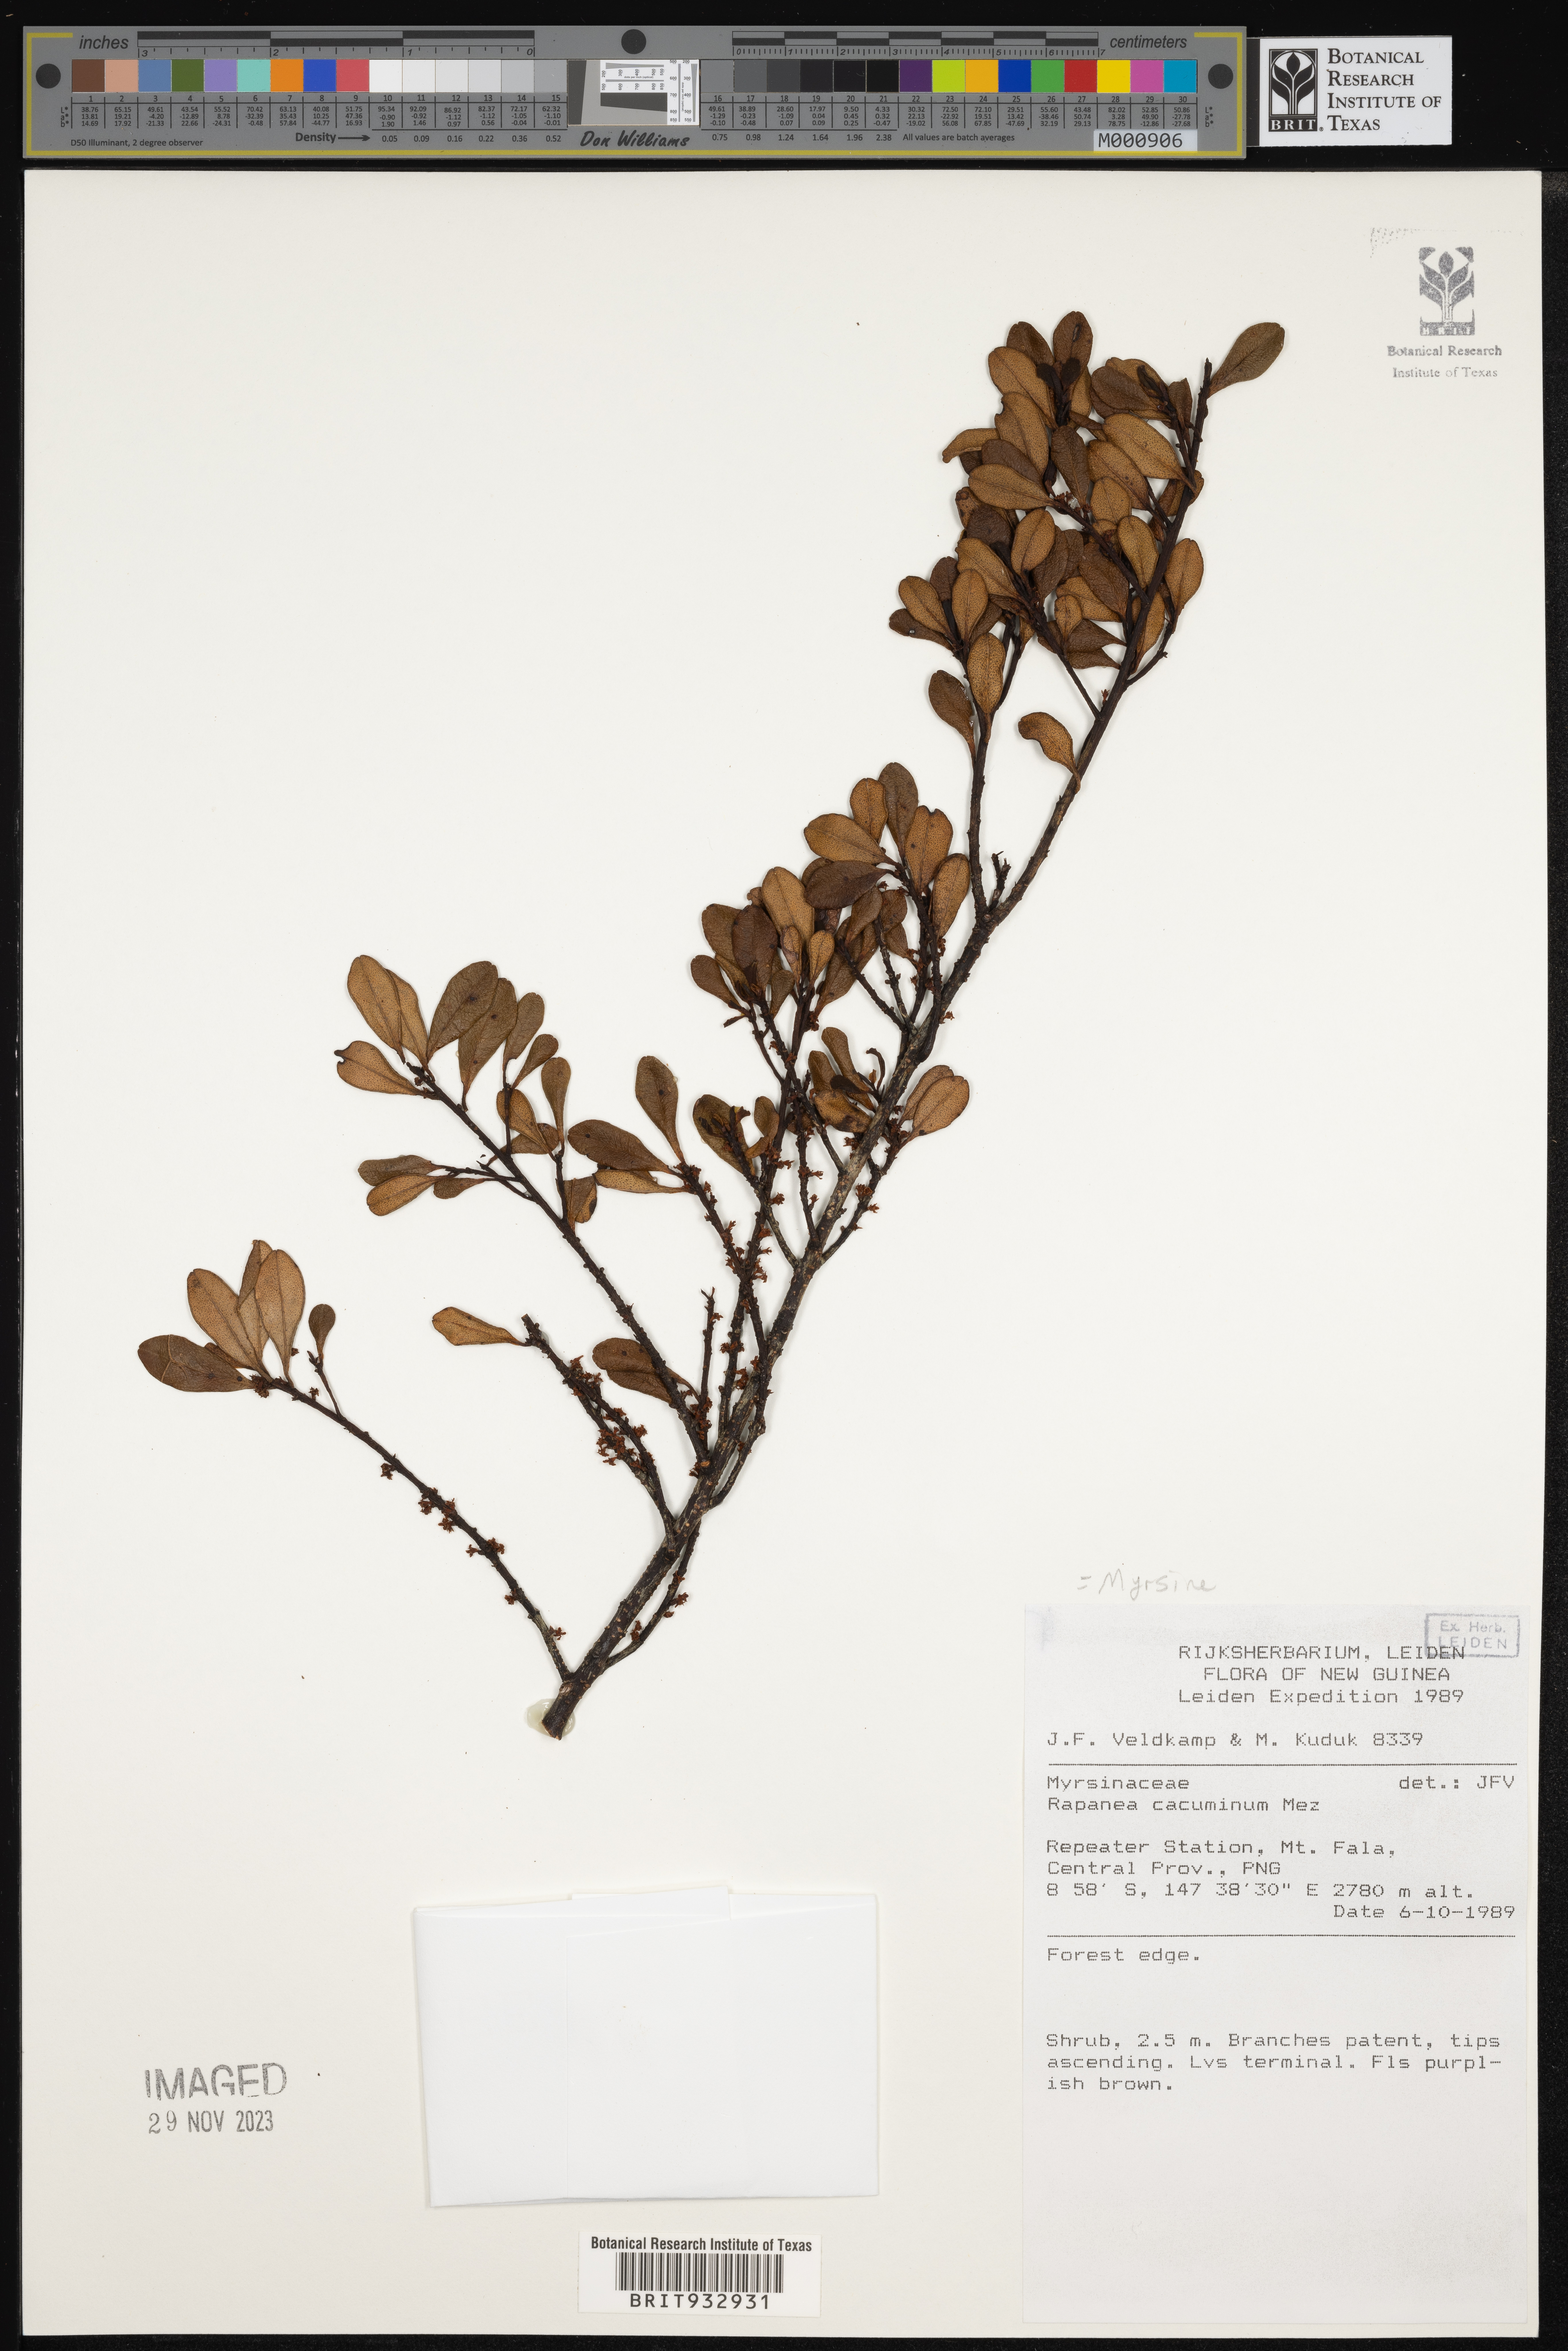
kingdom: Plantae
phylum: Tracheophyta
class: Magnoliopsida
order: Ericales
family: Primulaceae
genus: Myrsine
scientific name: Myrsine
